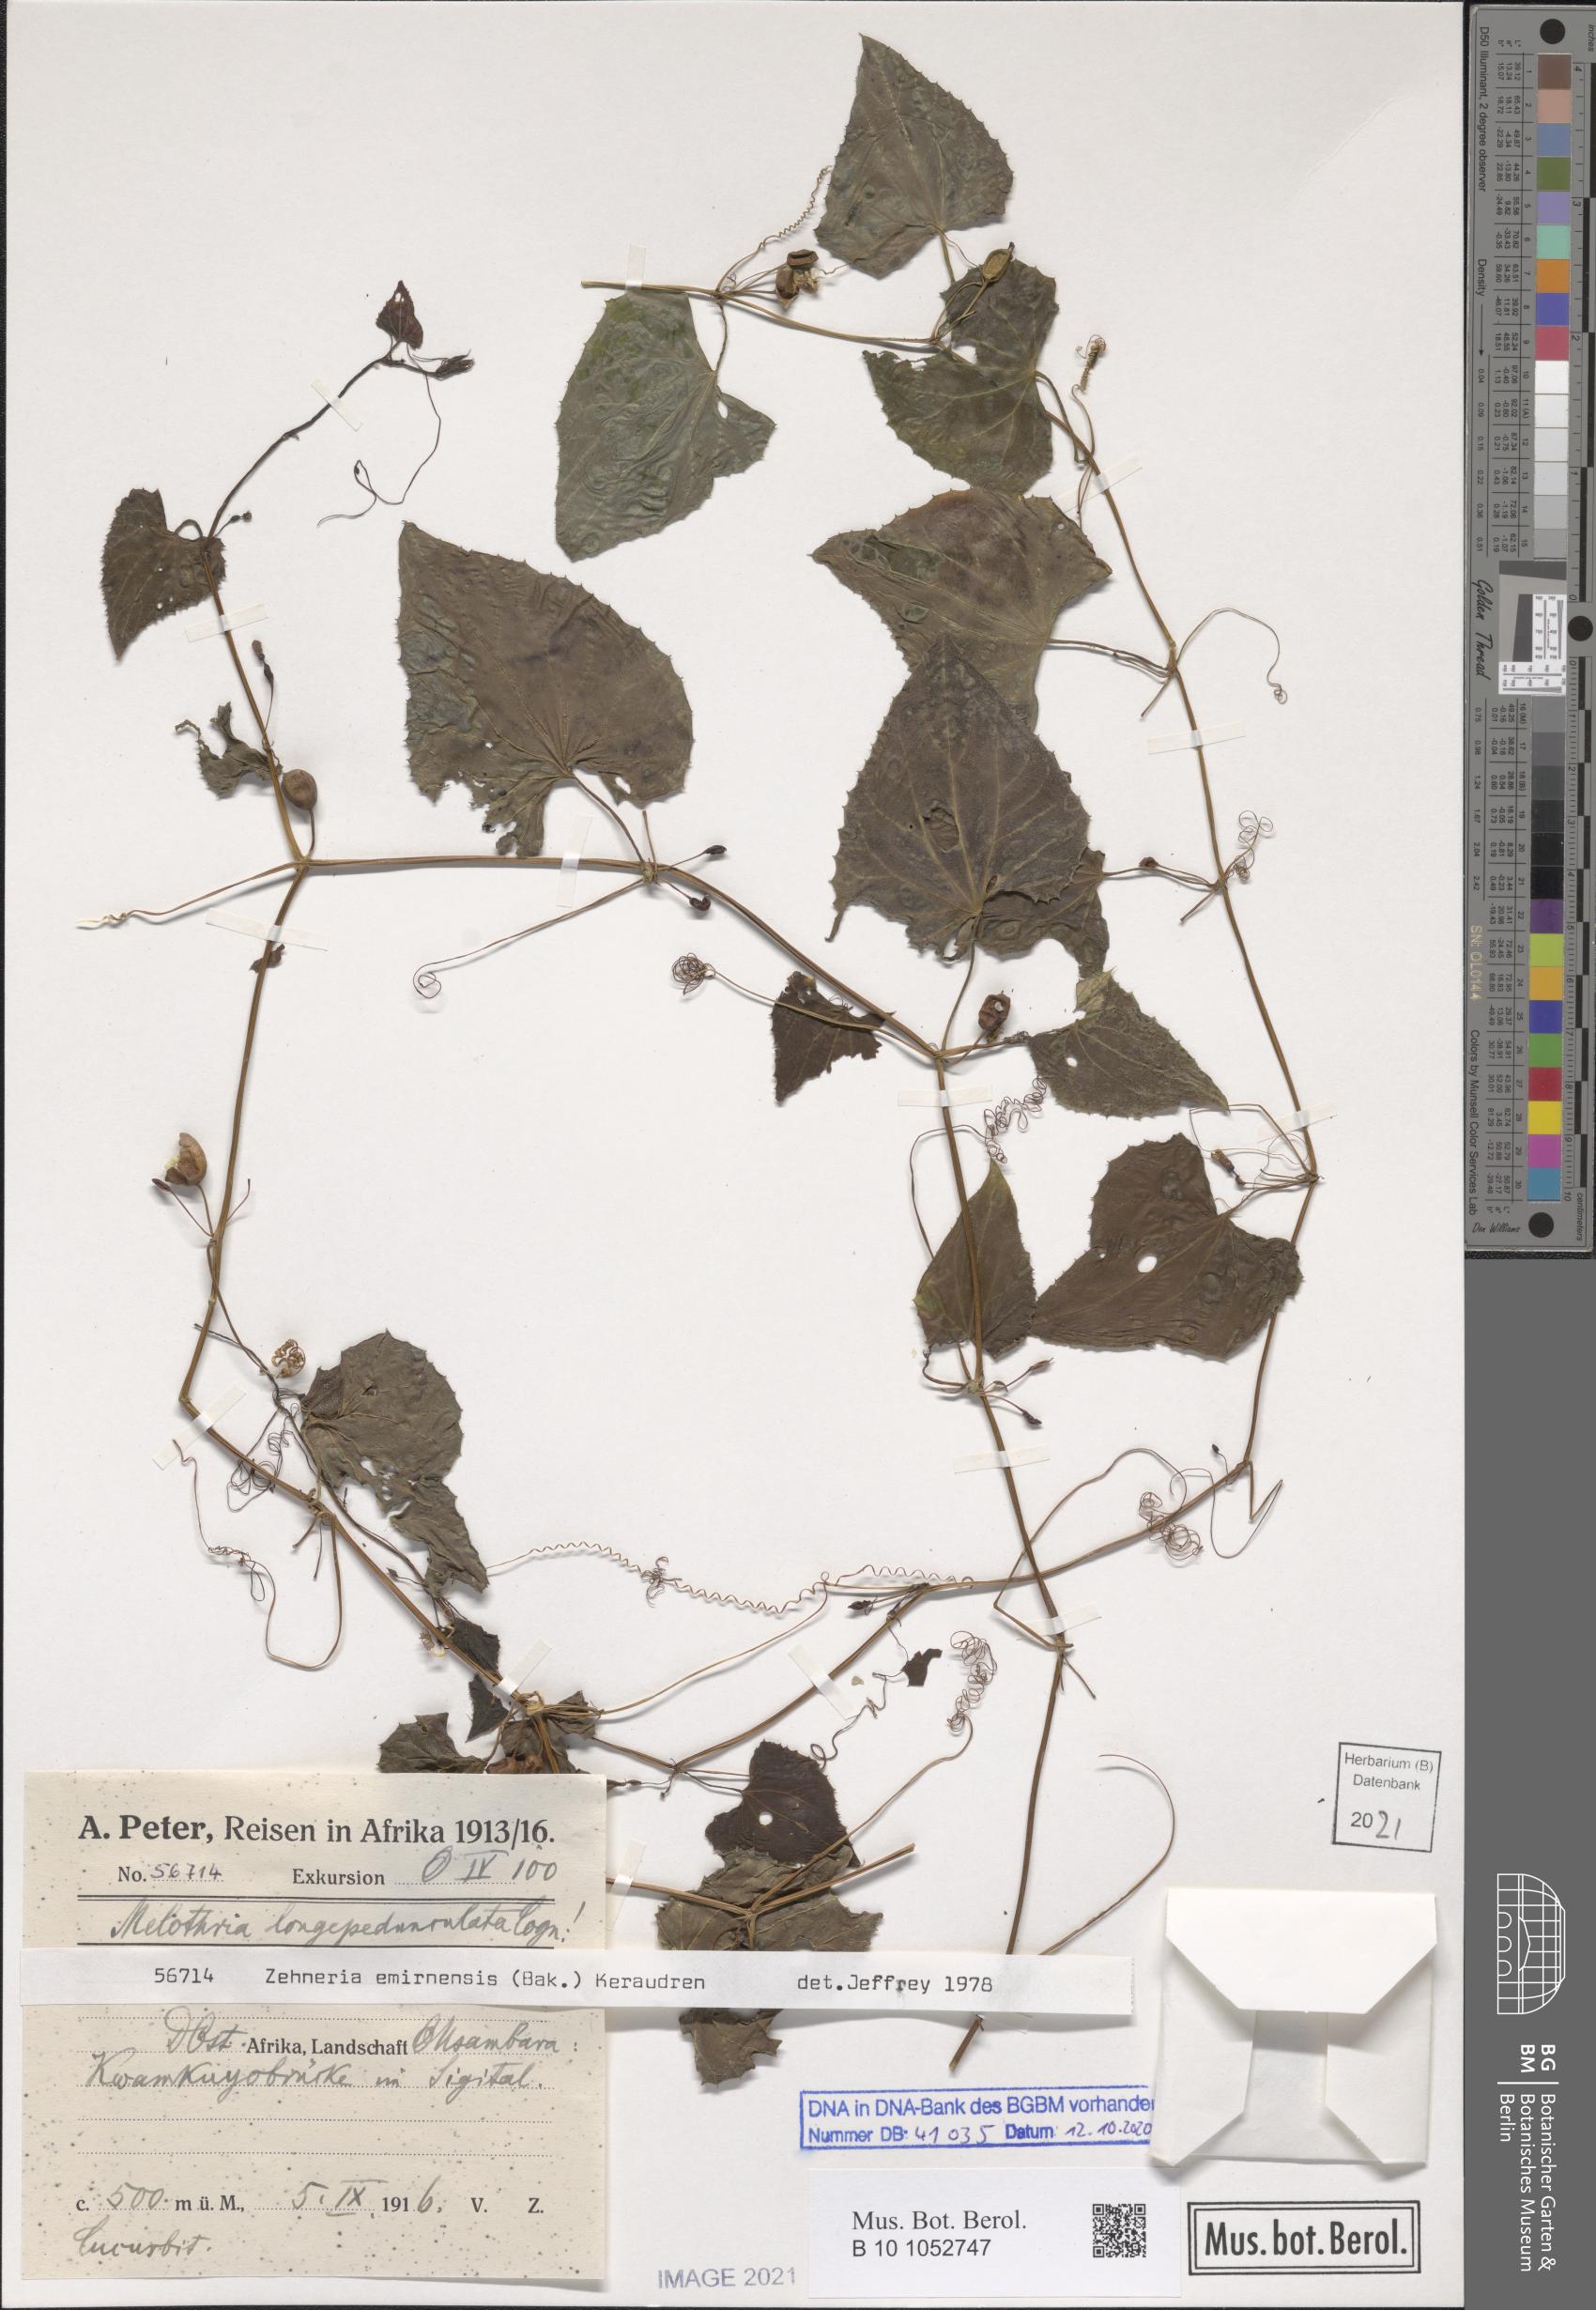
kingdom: Plantae
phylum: Tracheophyta
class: Magnoliopsida
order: Cucurbitales
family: Cucurbitaceae
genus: Zehneria
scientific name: Zehneria emirnensis
